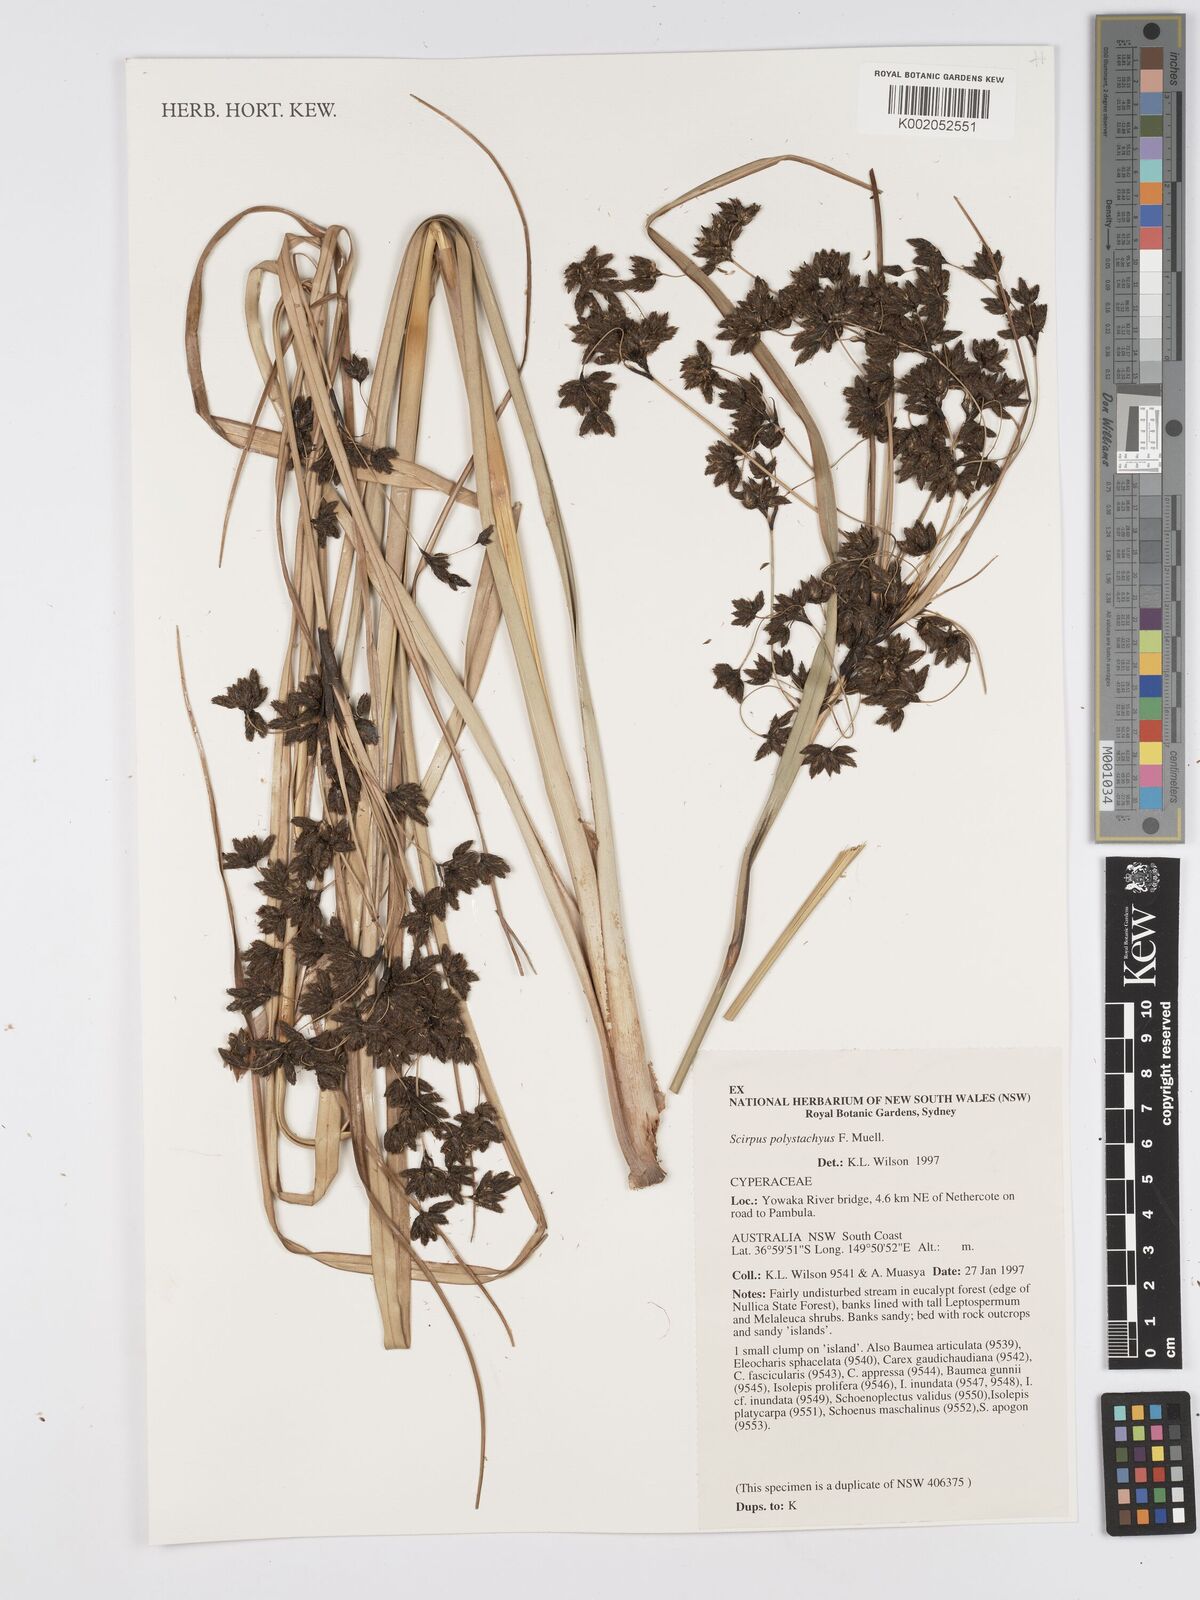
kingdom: Plantae
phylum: Tracheophyta
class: Liliopsida
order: Poales
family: Cyperaceae
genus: Scirpus
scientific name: Scirpus polystachyus
